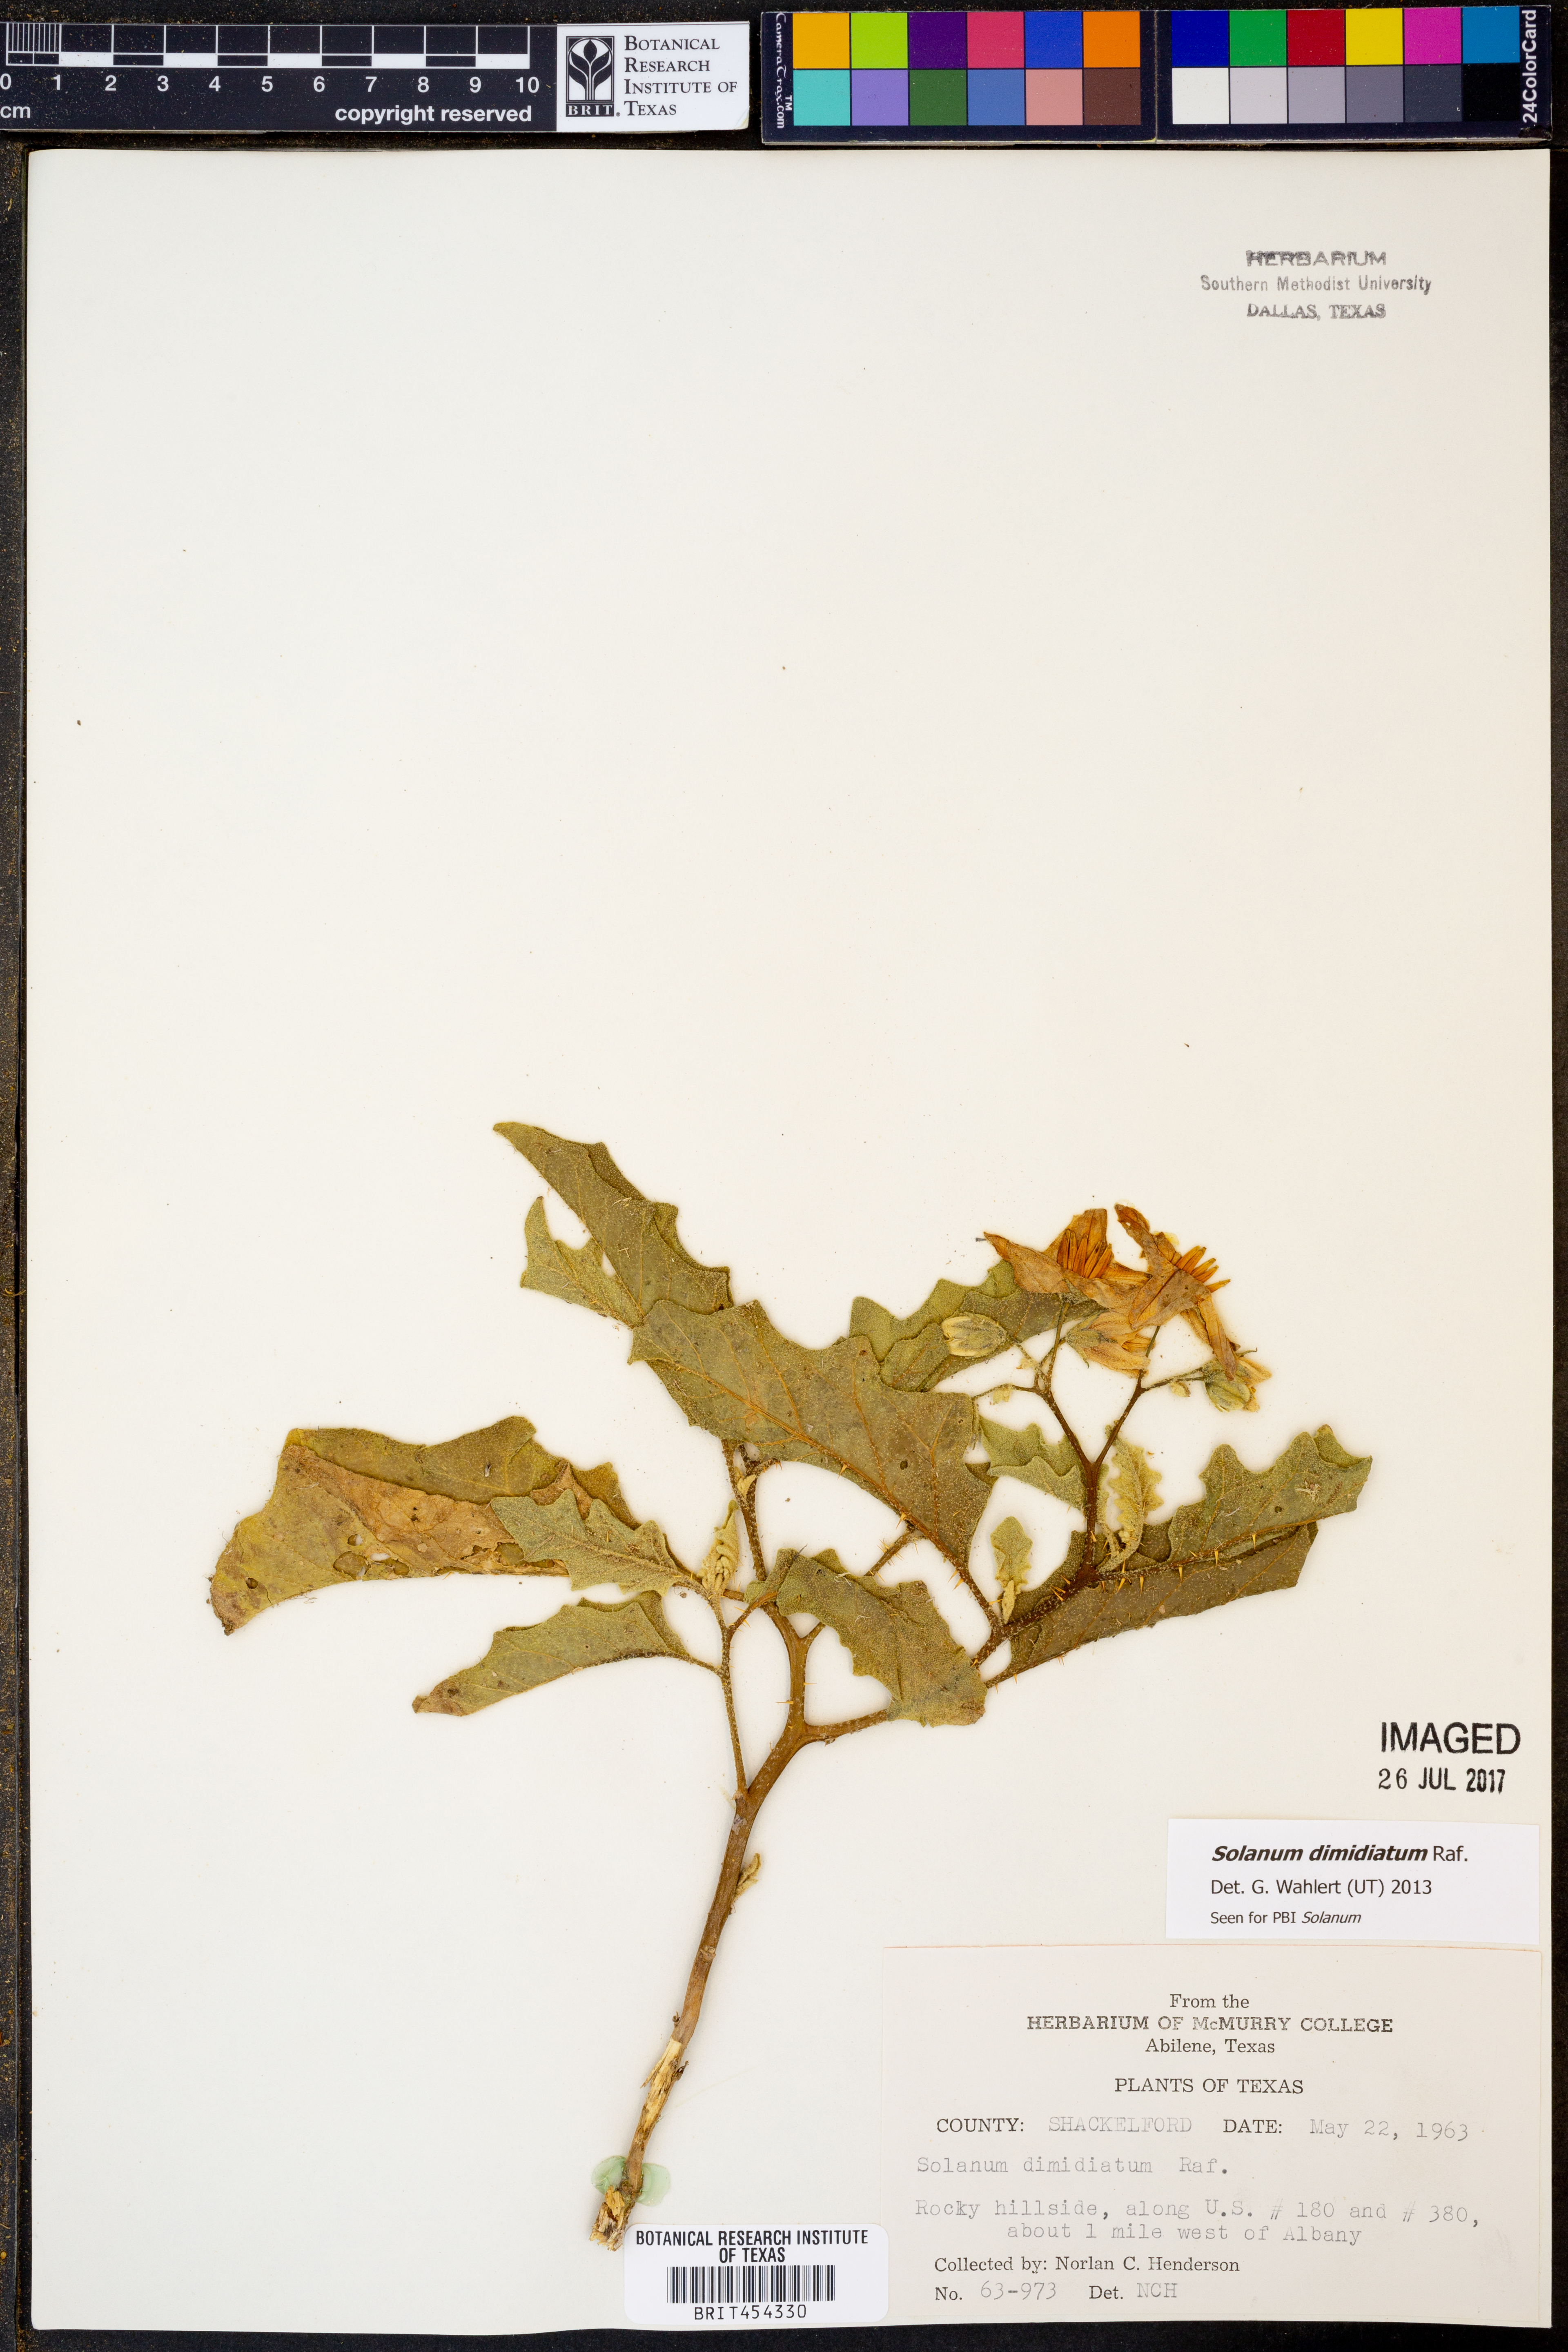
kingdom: Plantae
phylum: Tracheophyta
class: Magnoliopsida
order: Solanales
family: Solanaceae
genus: Solanum
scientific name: Solanum dimidiatum
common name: Carolina horse-nettle
